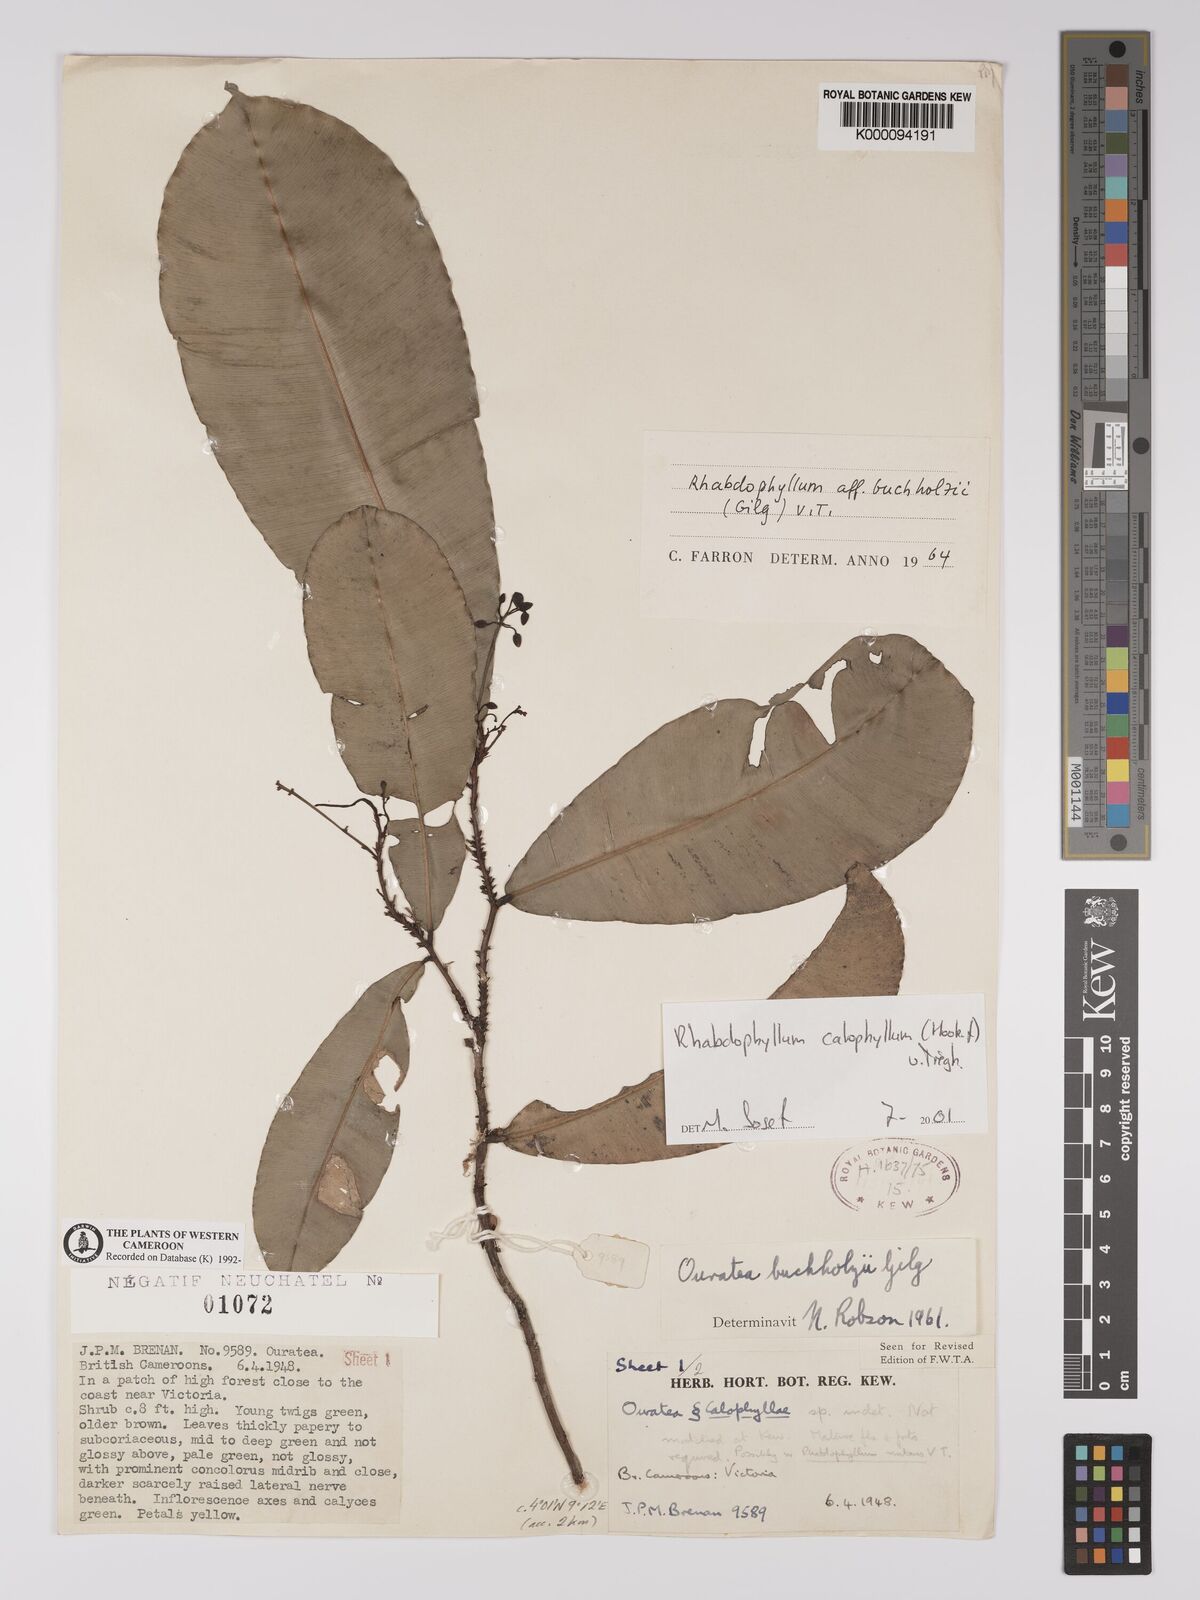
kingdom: Plantae
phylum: Tracheophyta
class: Magnoliopsida
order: Malpighiales
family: Ochnaceae
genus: Rhabdophyllum
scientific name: Rhabdophyllum
